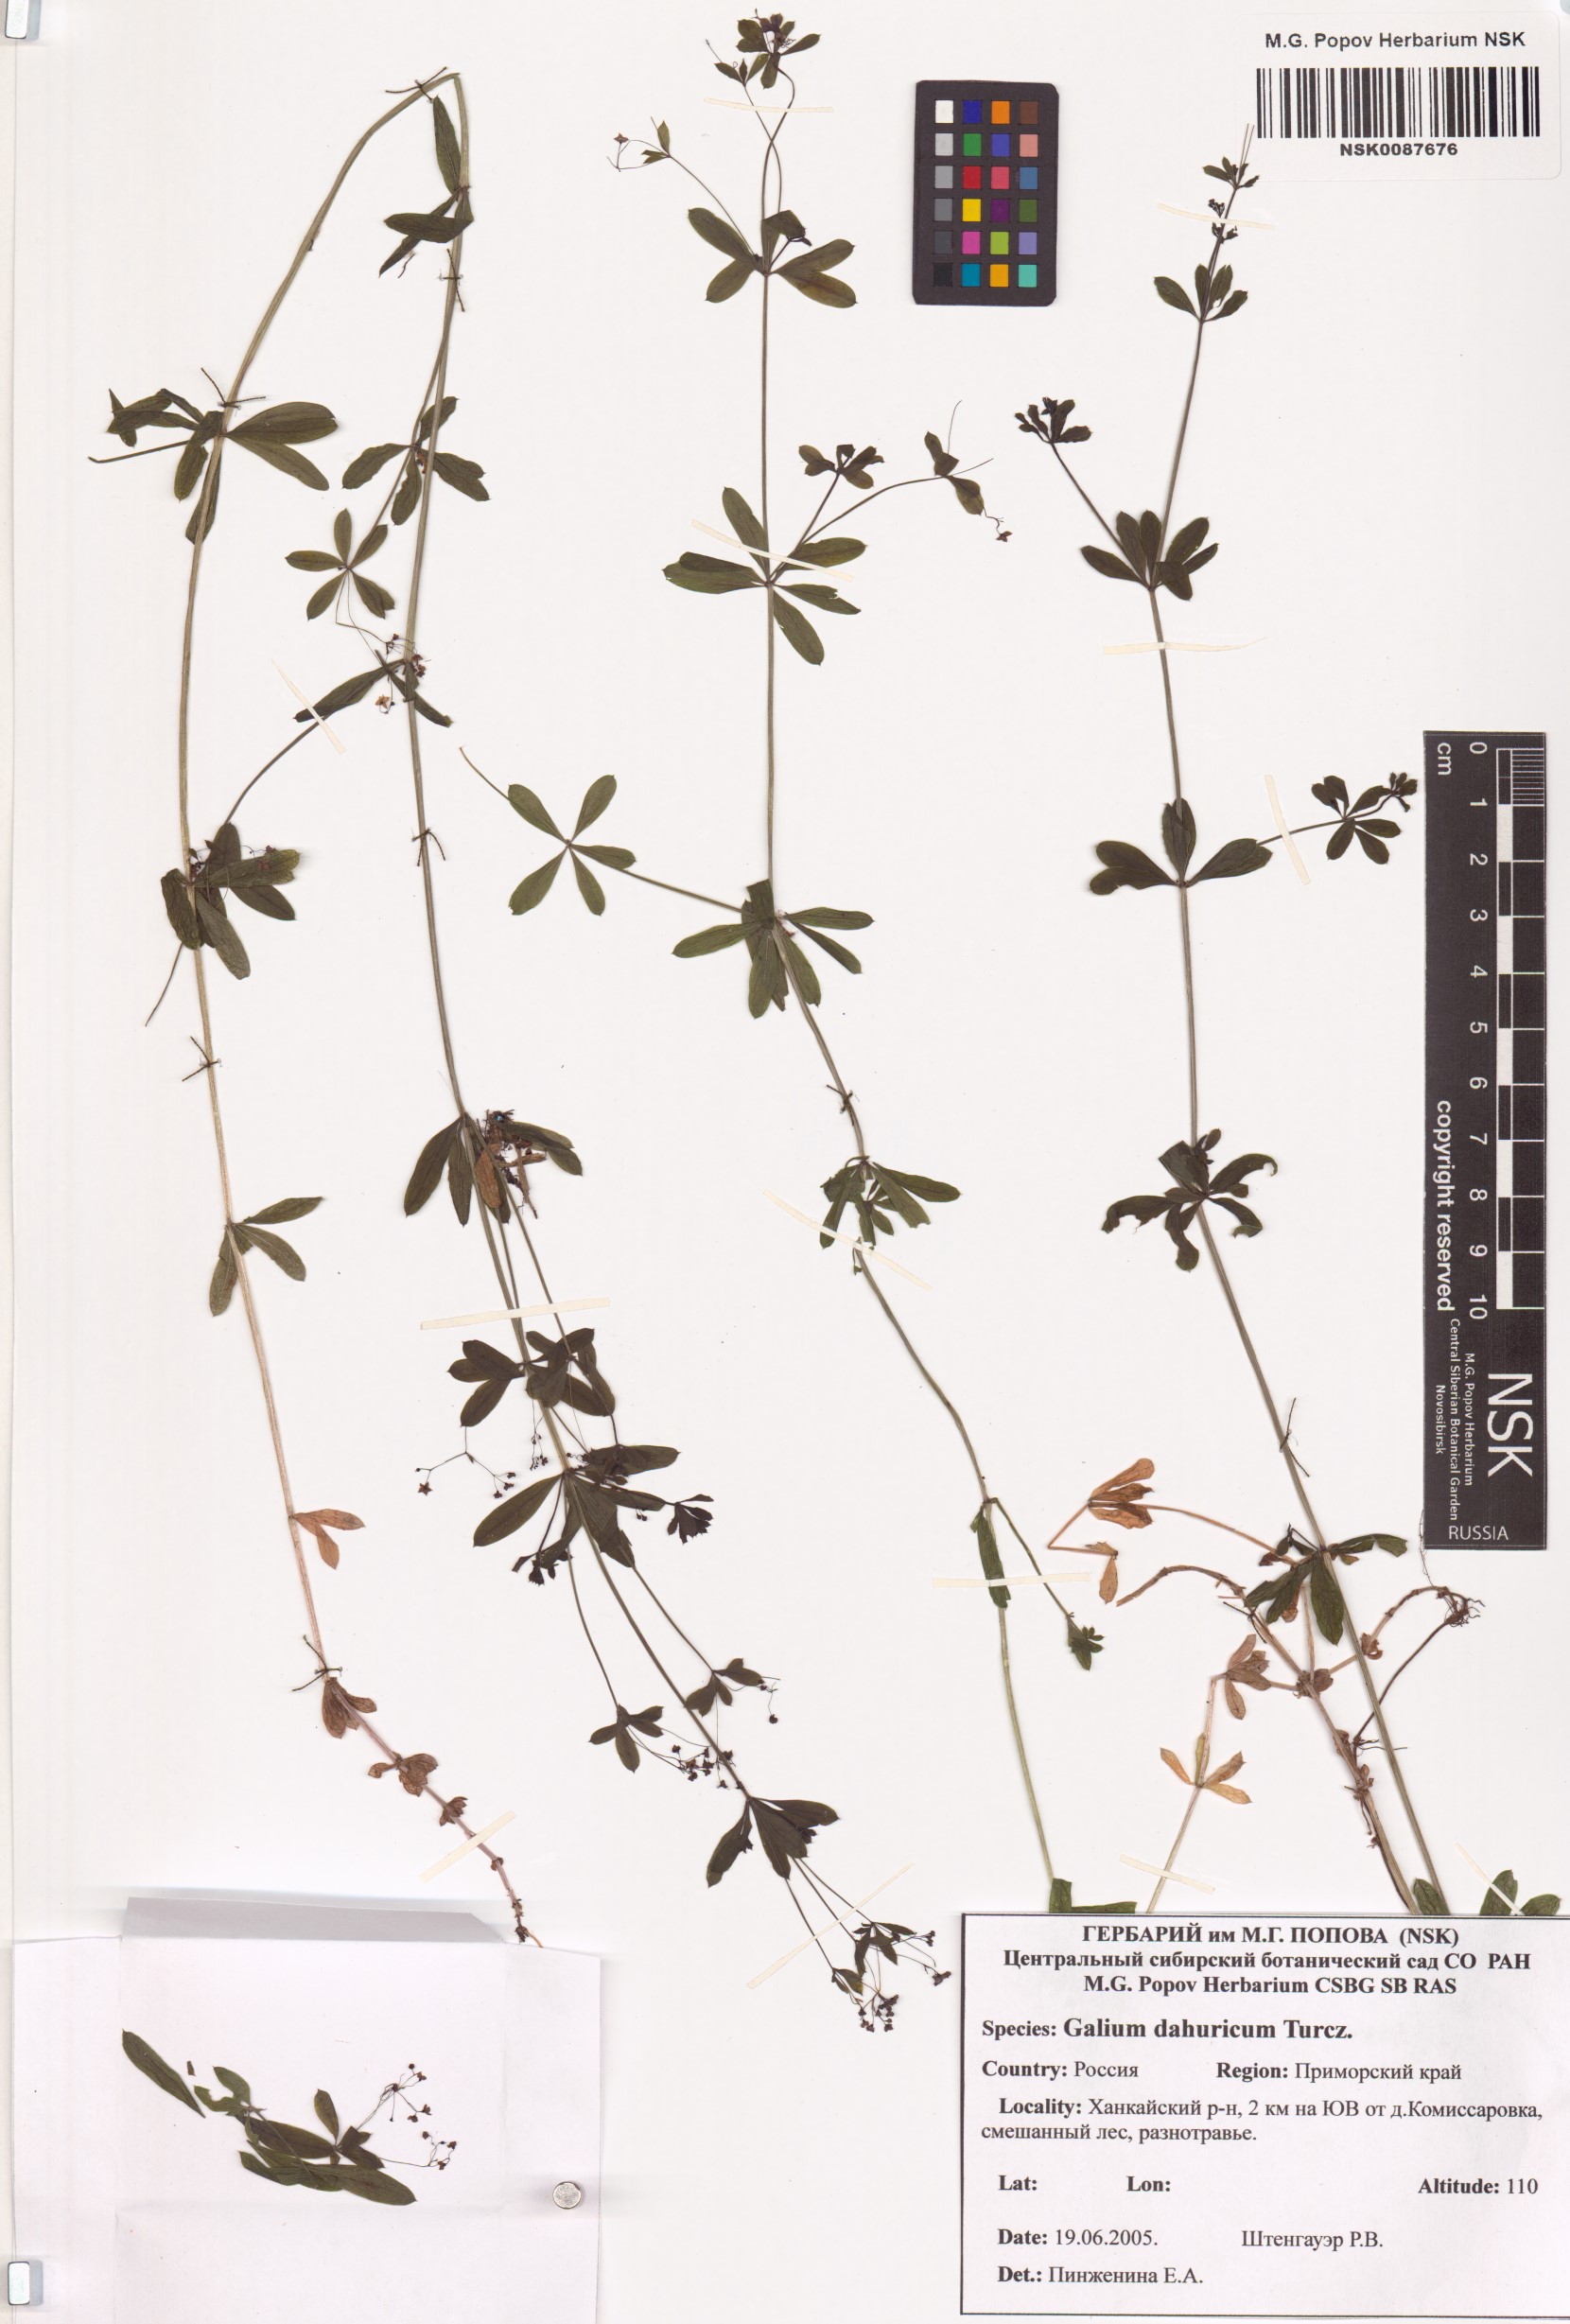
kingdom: Plantae
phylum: Tracheophyta
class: Magnoliopsida
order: Gentianales
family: Rubiaceae
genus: Galium
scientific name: Galium dahuricum
